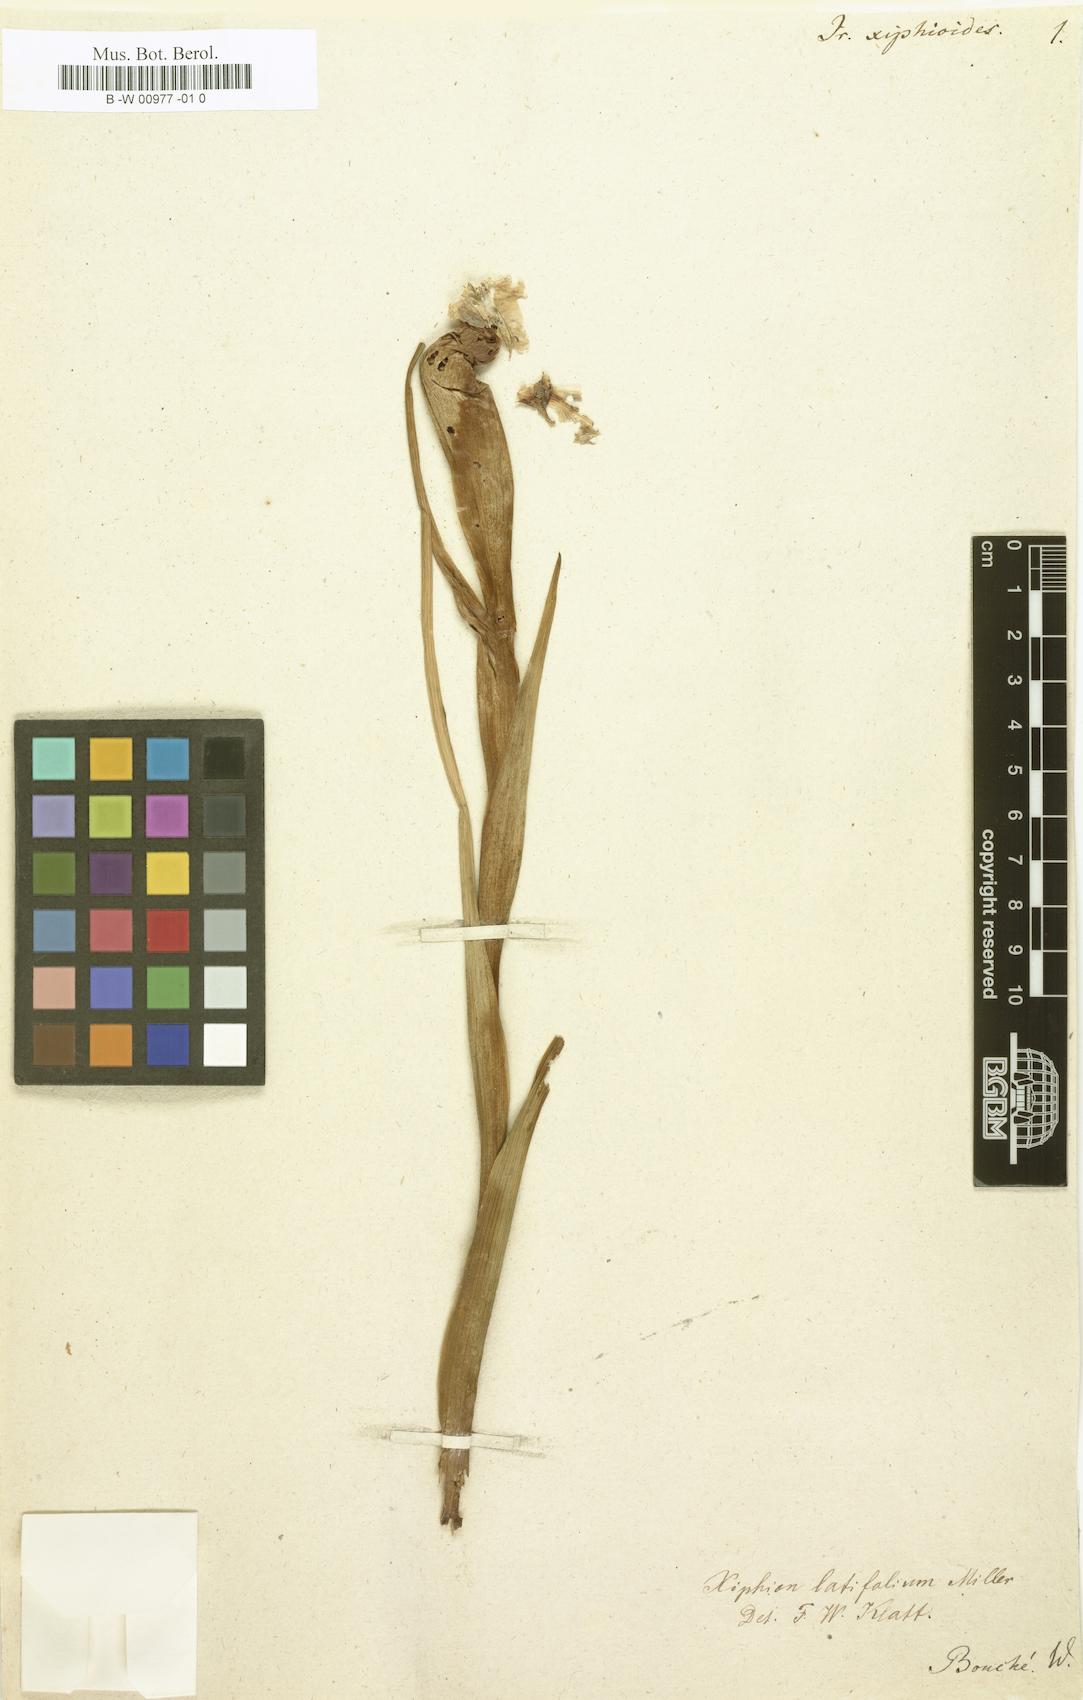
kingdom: Plantae
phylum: Tracheophyta
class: Liliopsida
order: Asparagales
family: Iridaceae
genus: Iris
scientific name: Iris jacquinii
